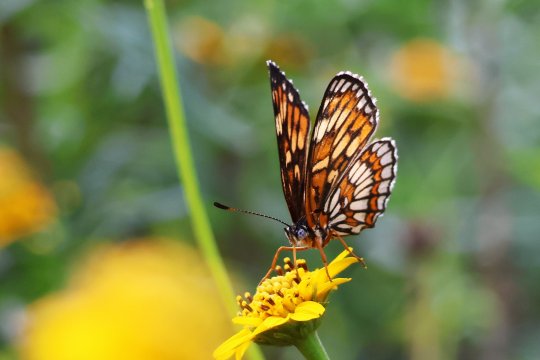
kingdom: Animalia
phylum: Arthropoda
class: Insecta
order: Lepidoptera
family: Nymphalidae
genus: Thessalia
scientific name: Thessalia theona
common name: Theona Checkerspot
